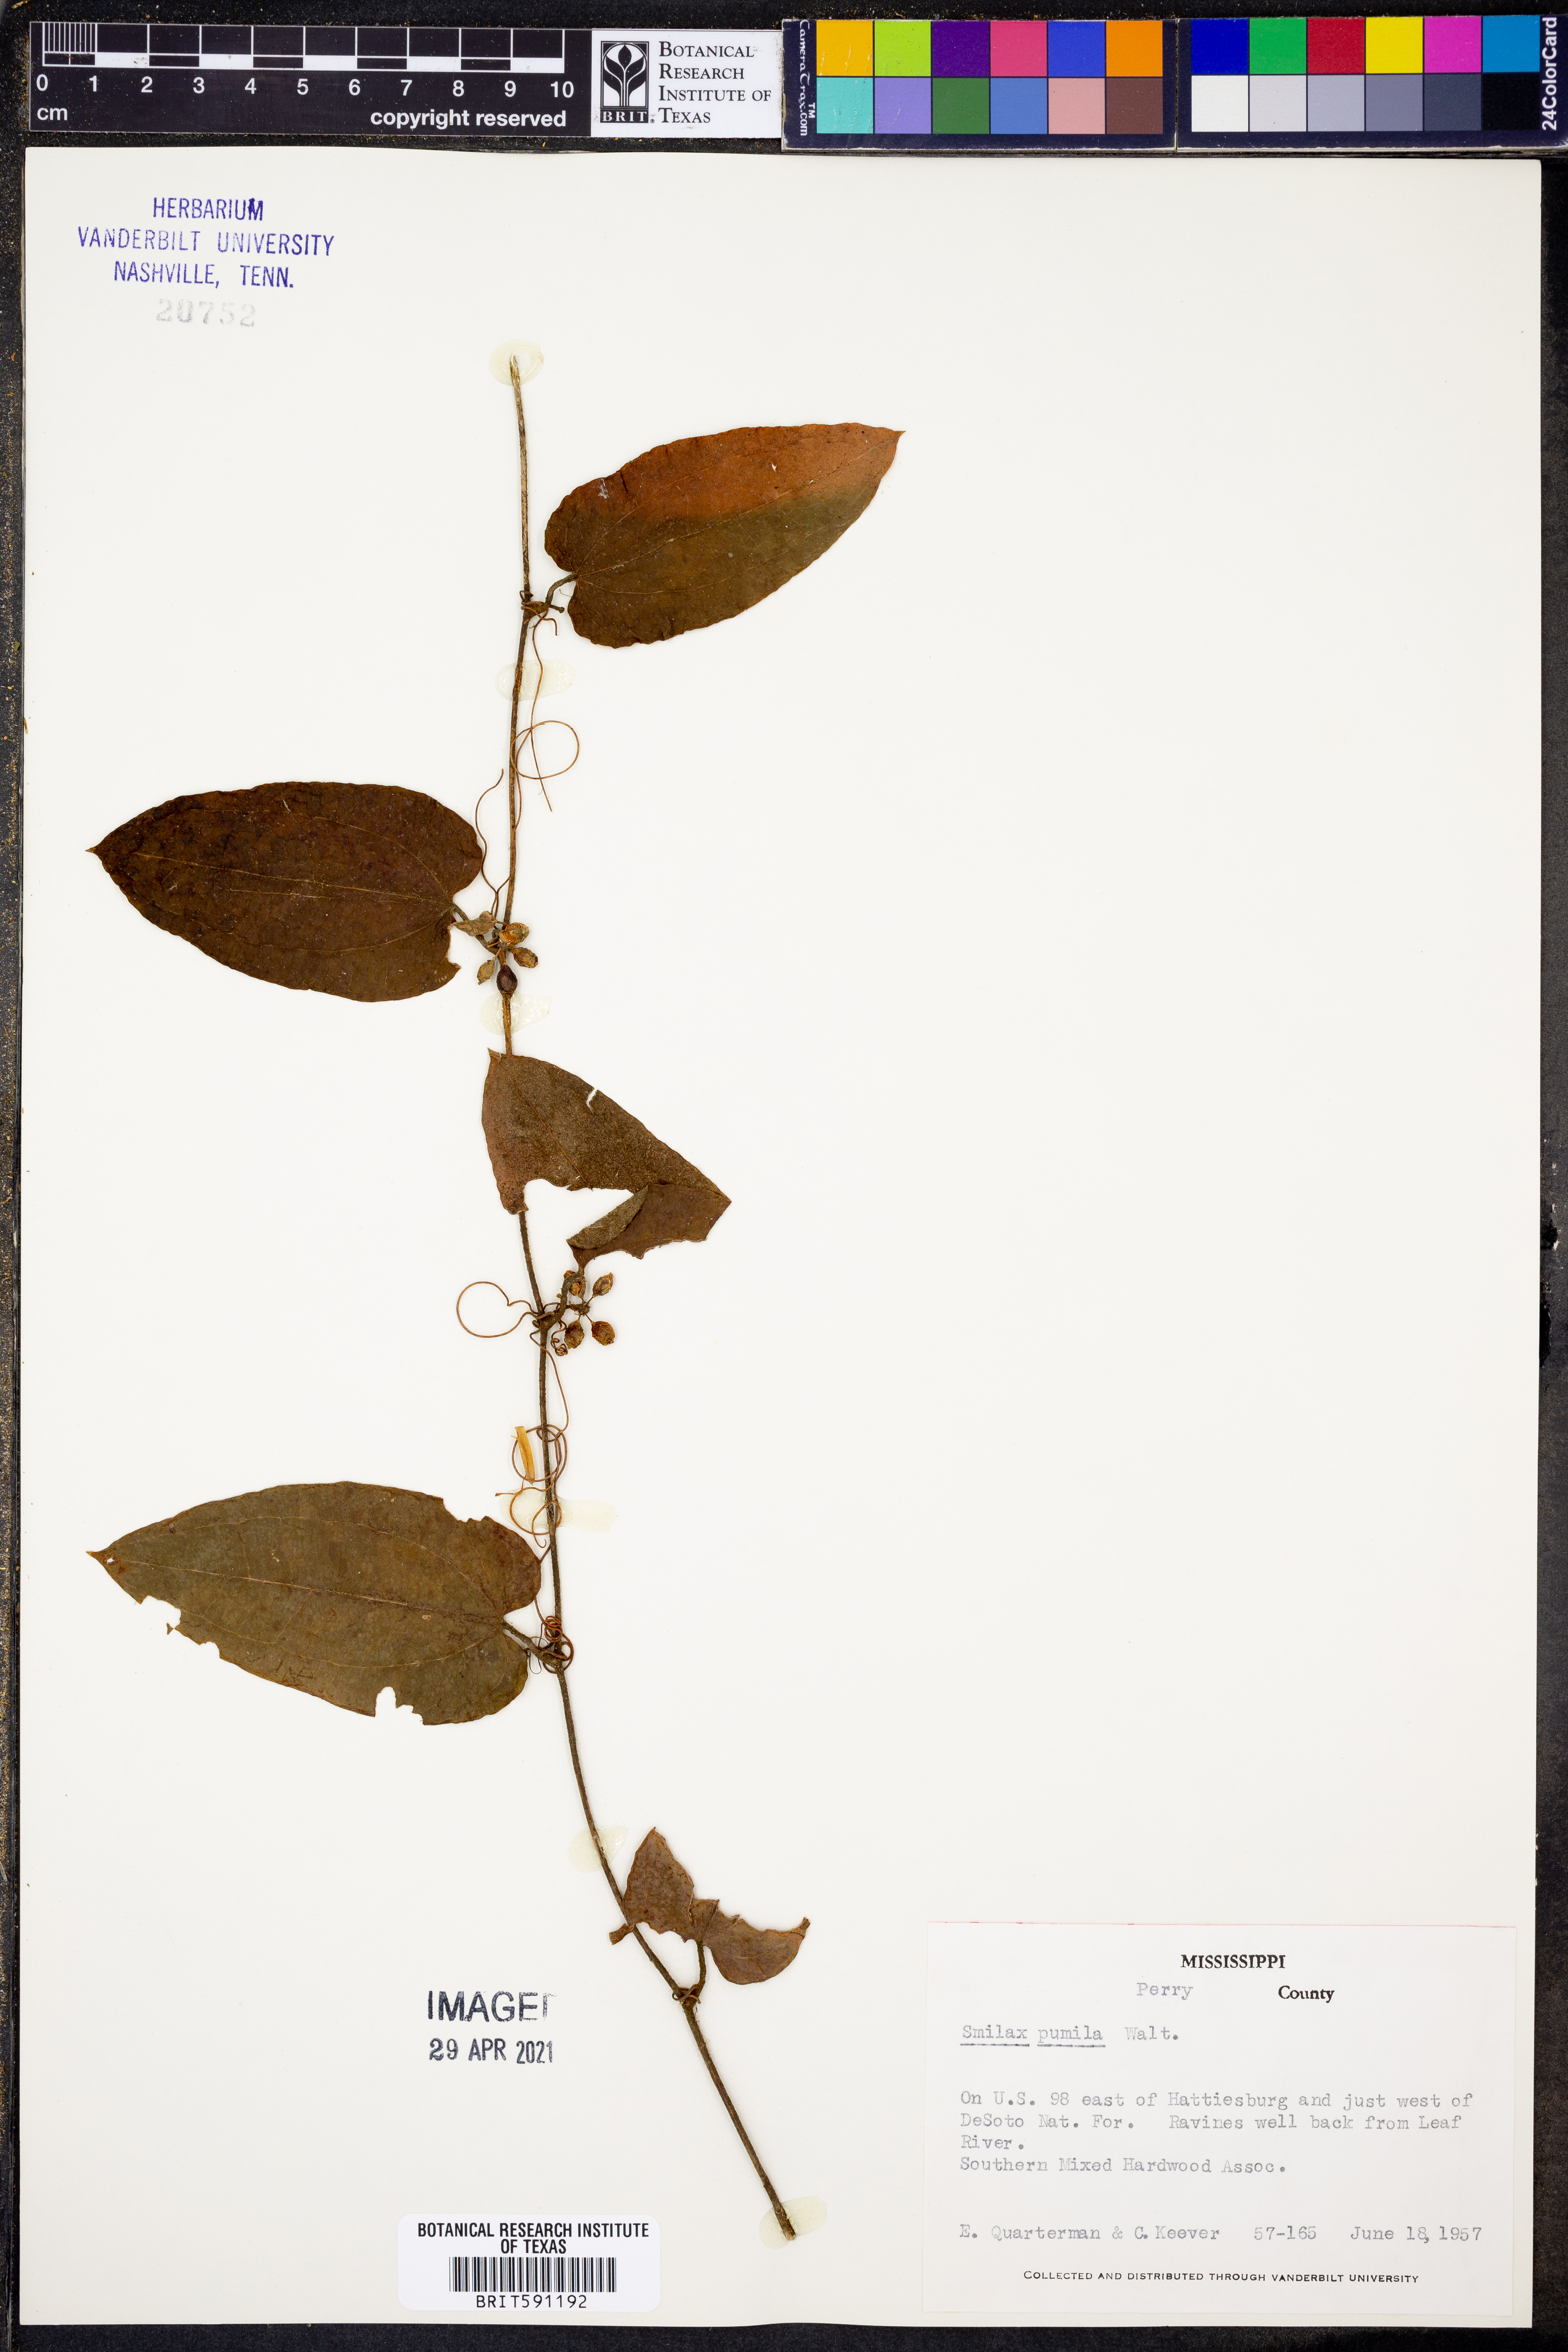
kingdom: Plantae
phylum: Tracheophyta
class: Liliopsida
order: Liliales
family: Smilacaceae
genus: Smilax
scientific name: Smilax pumila
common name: Sarsaparilla-vine
